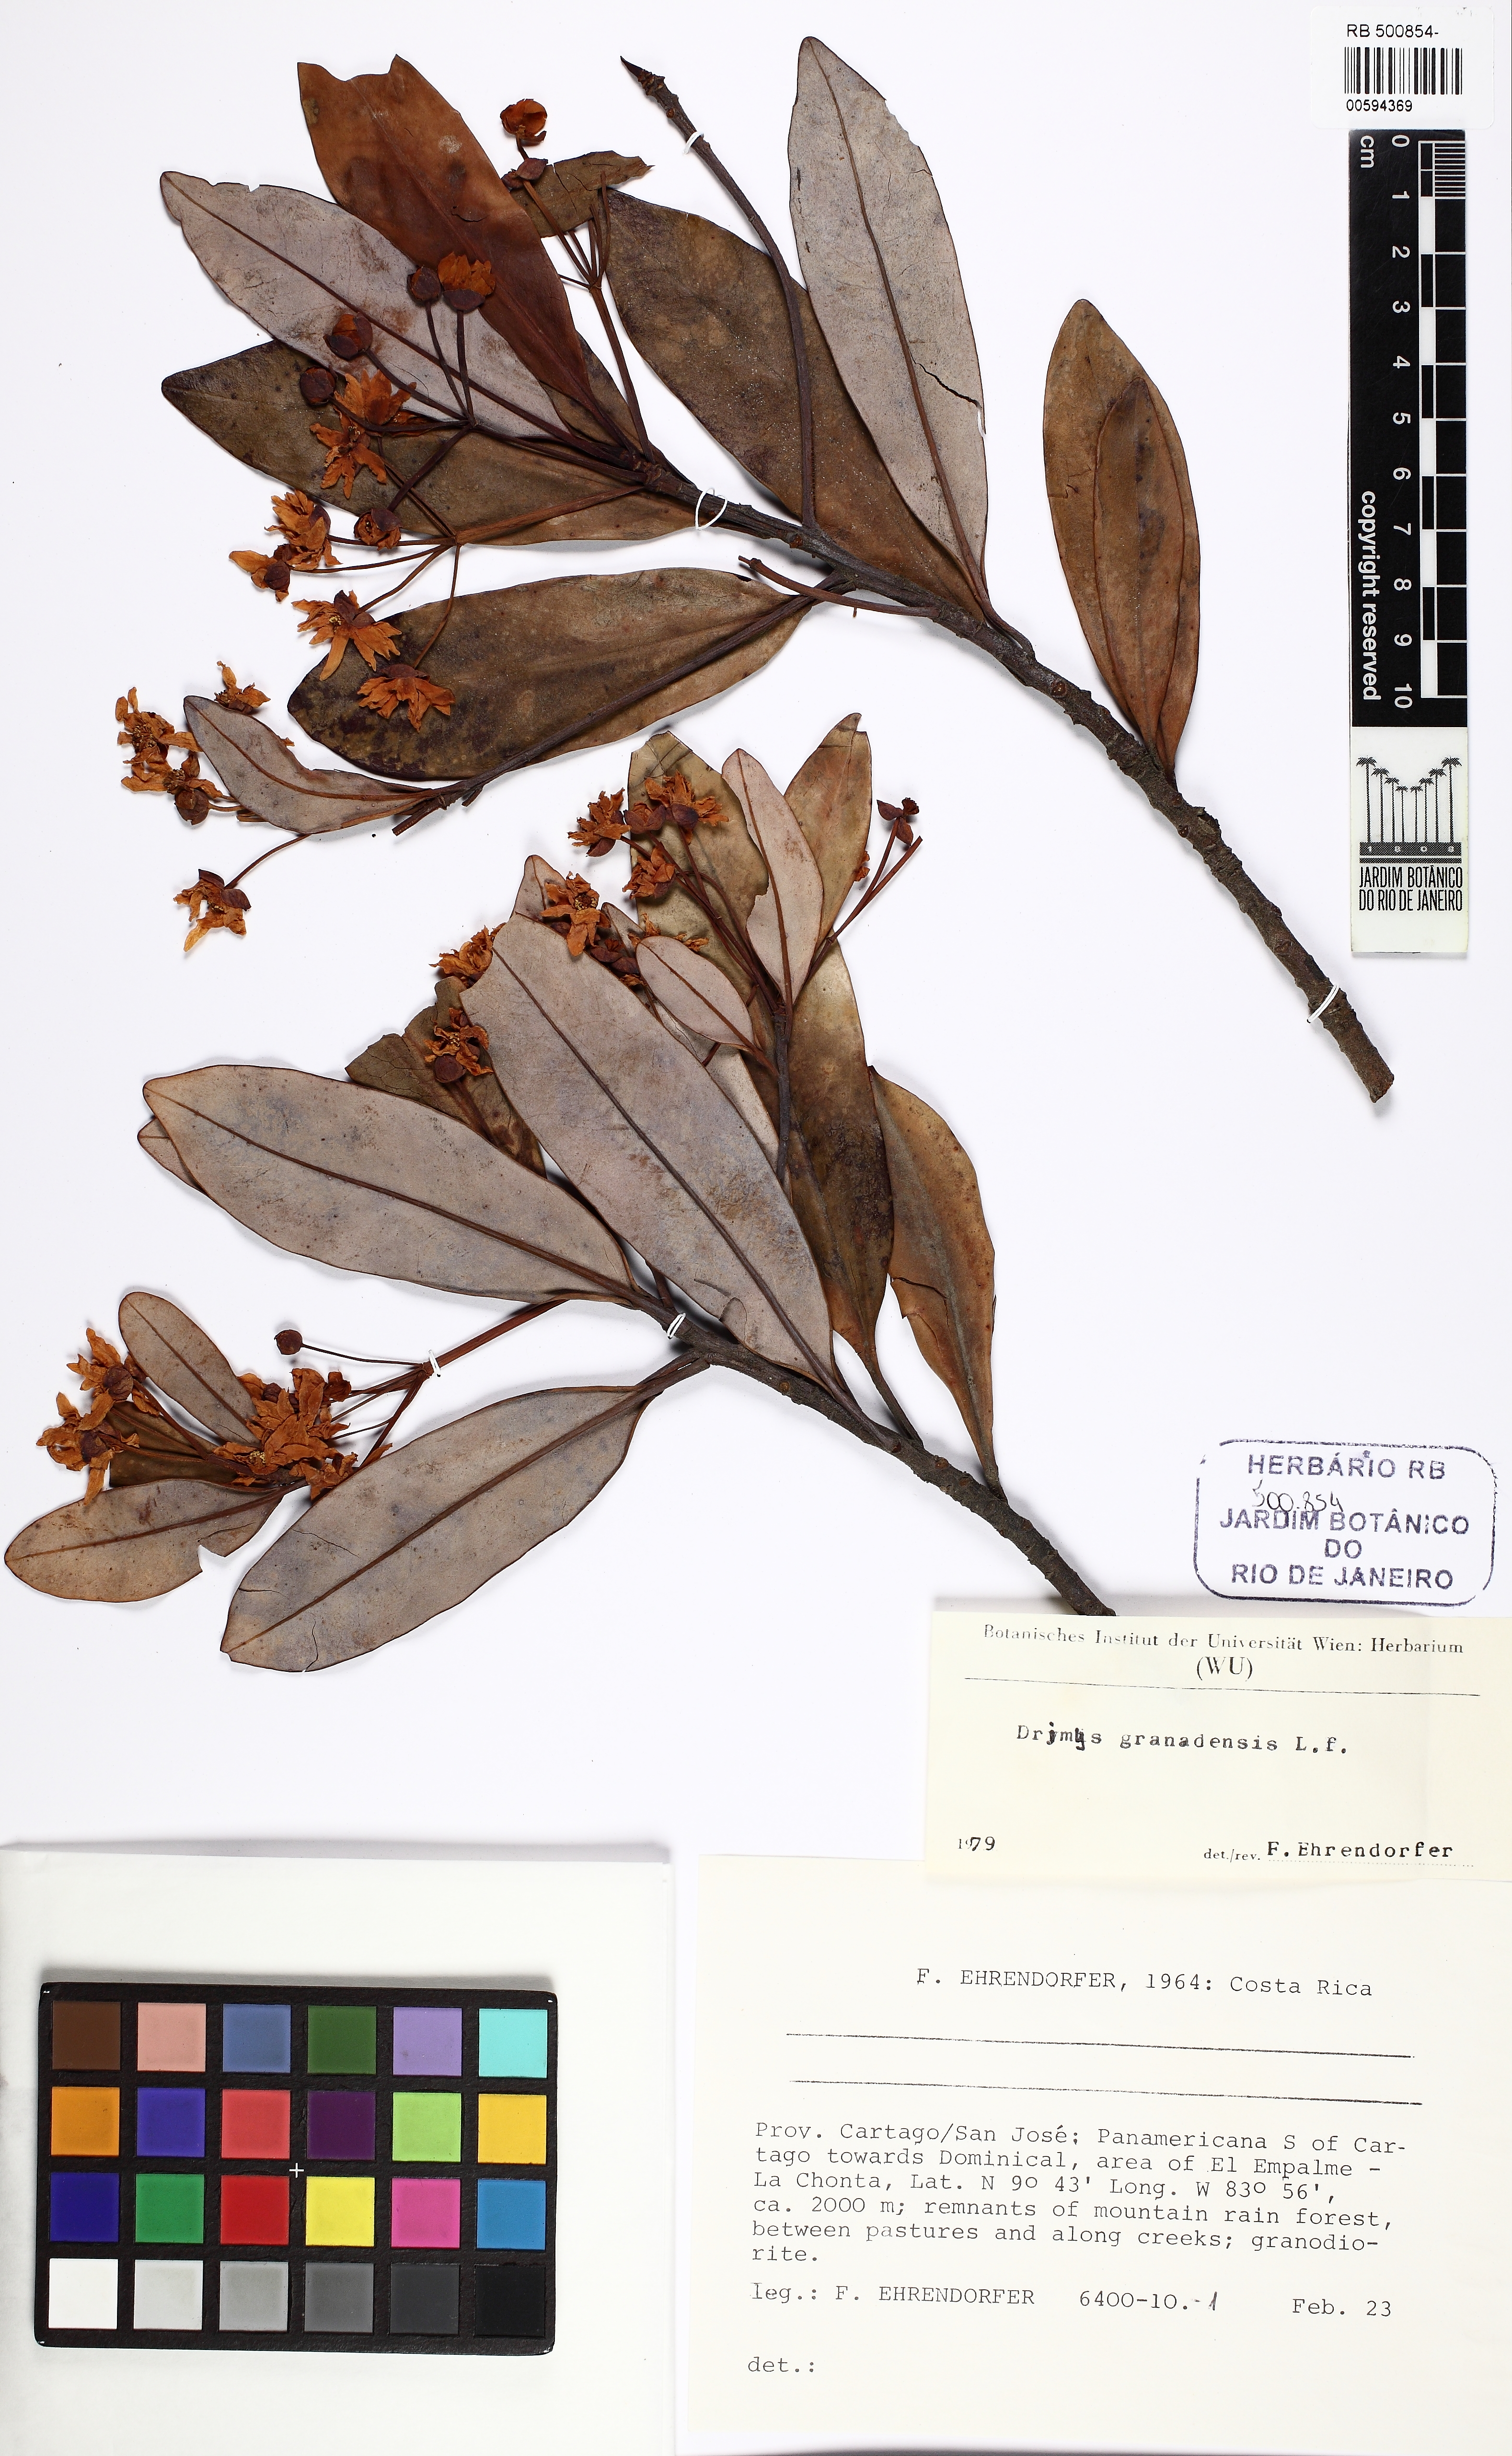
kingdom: Plantae
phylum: Tracheophyta
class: Magnoliopsida
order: Canellales
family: Winteraceae
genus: Drimys
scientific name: Drimys granadensis
